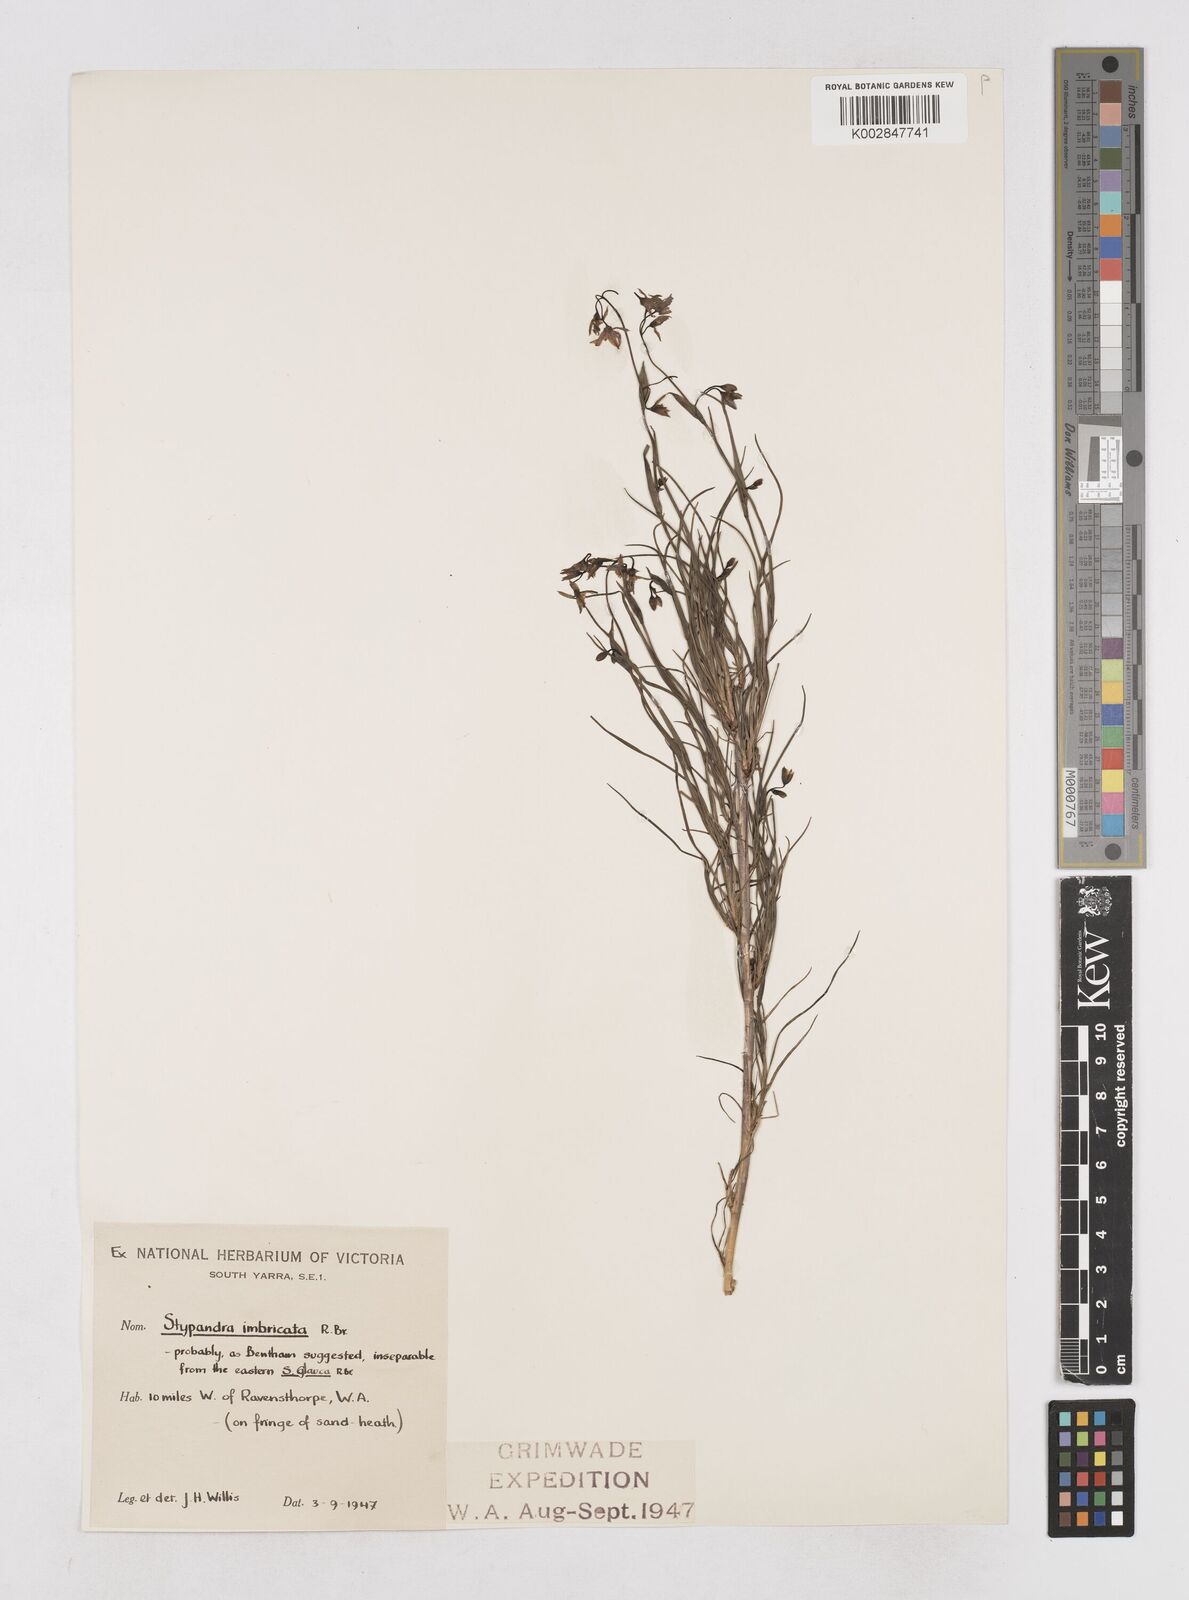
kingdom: Plantae
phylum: Tracheophyta
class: Liliopsida
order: Asparagales
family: Asphodelaceae
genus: Stypandra
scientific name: Stypandra glauca
